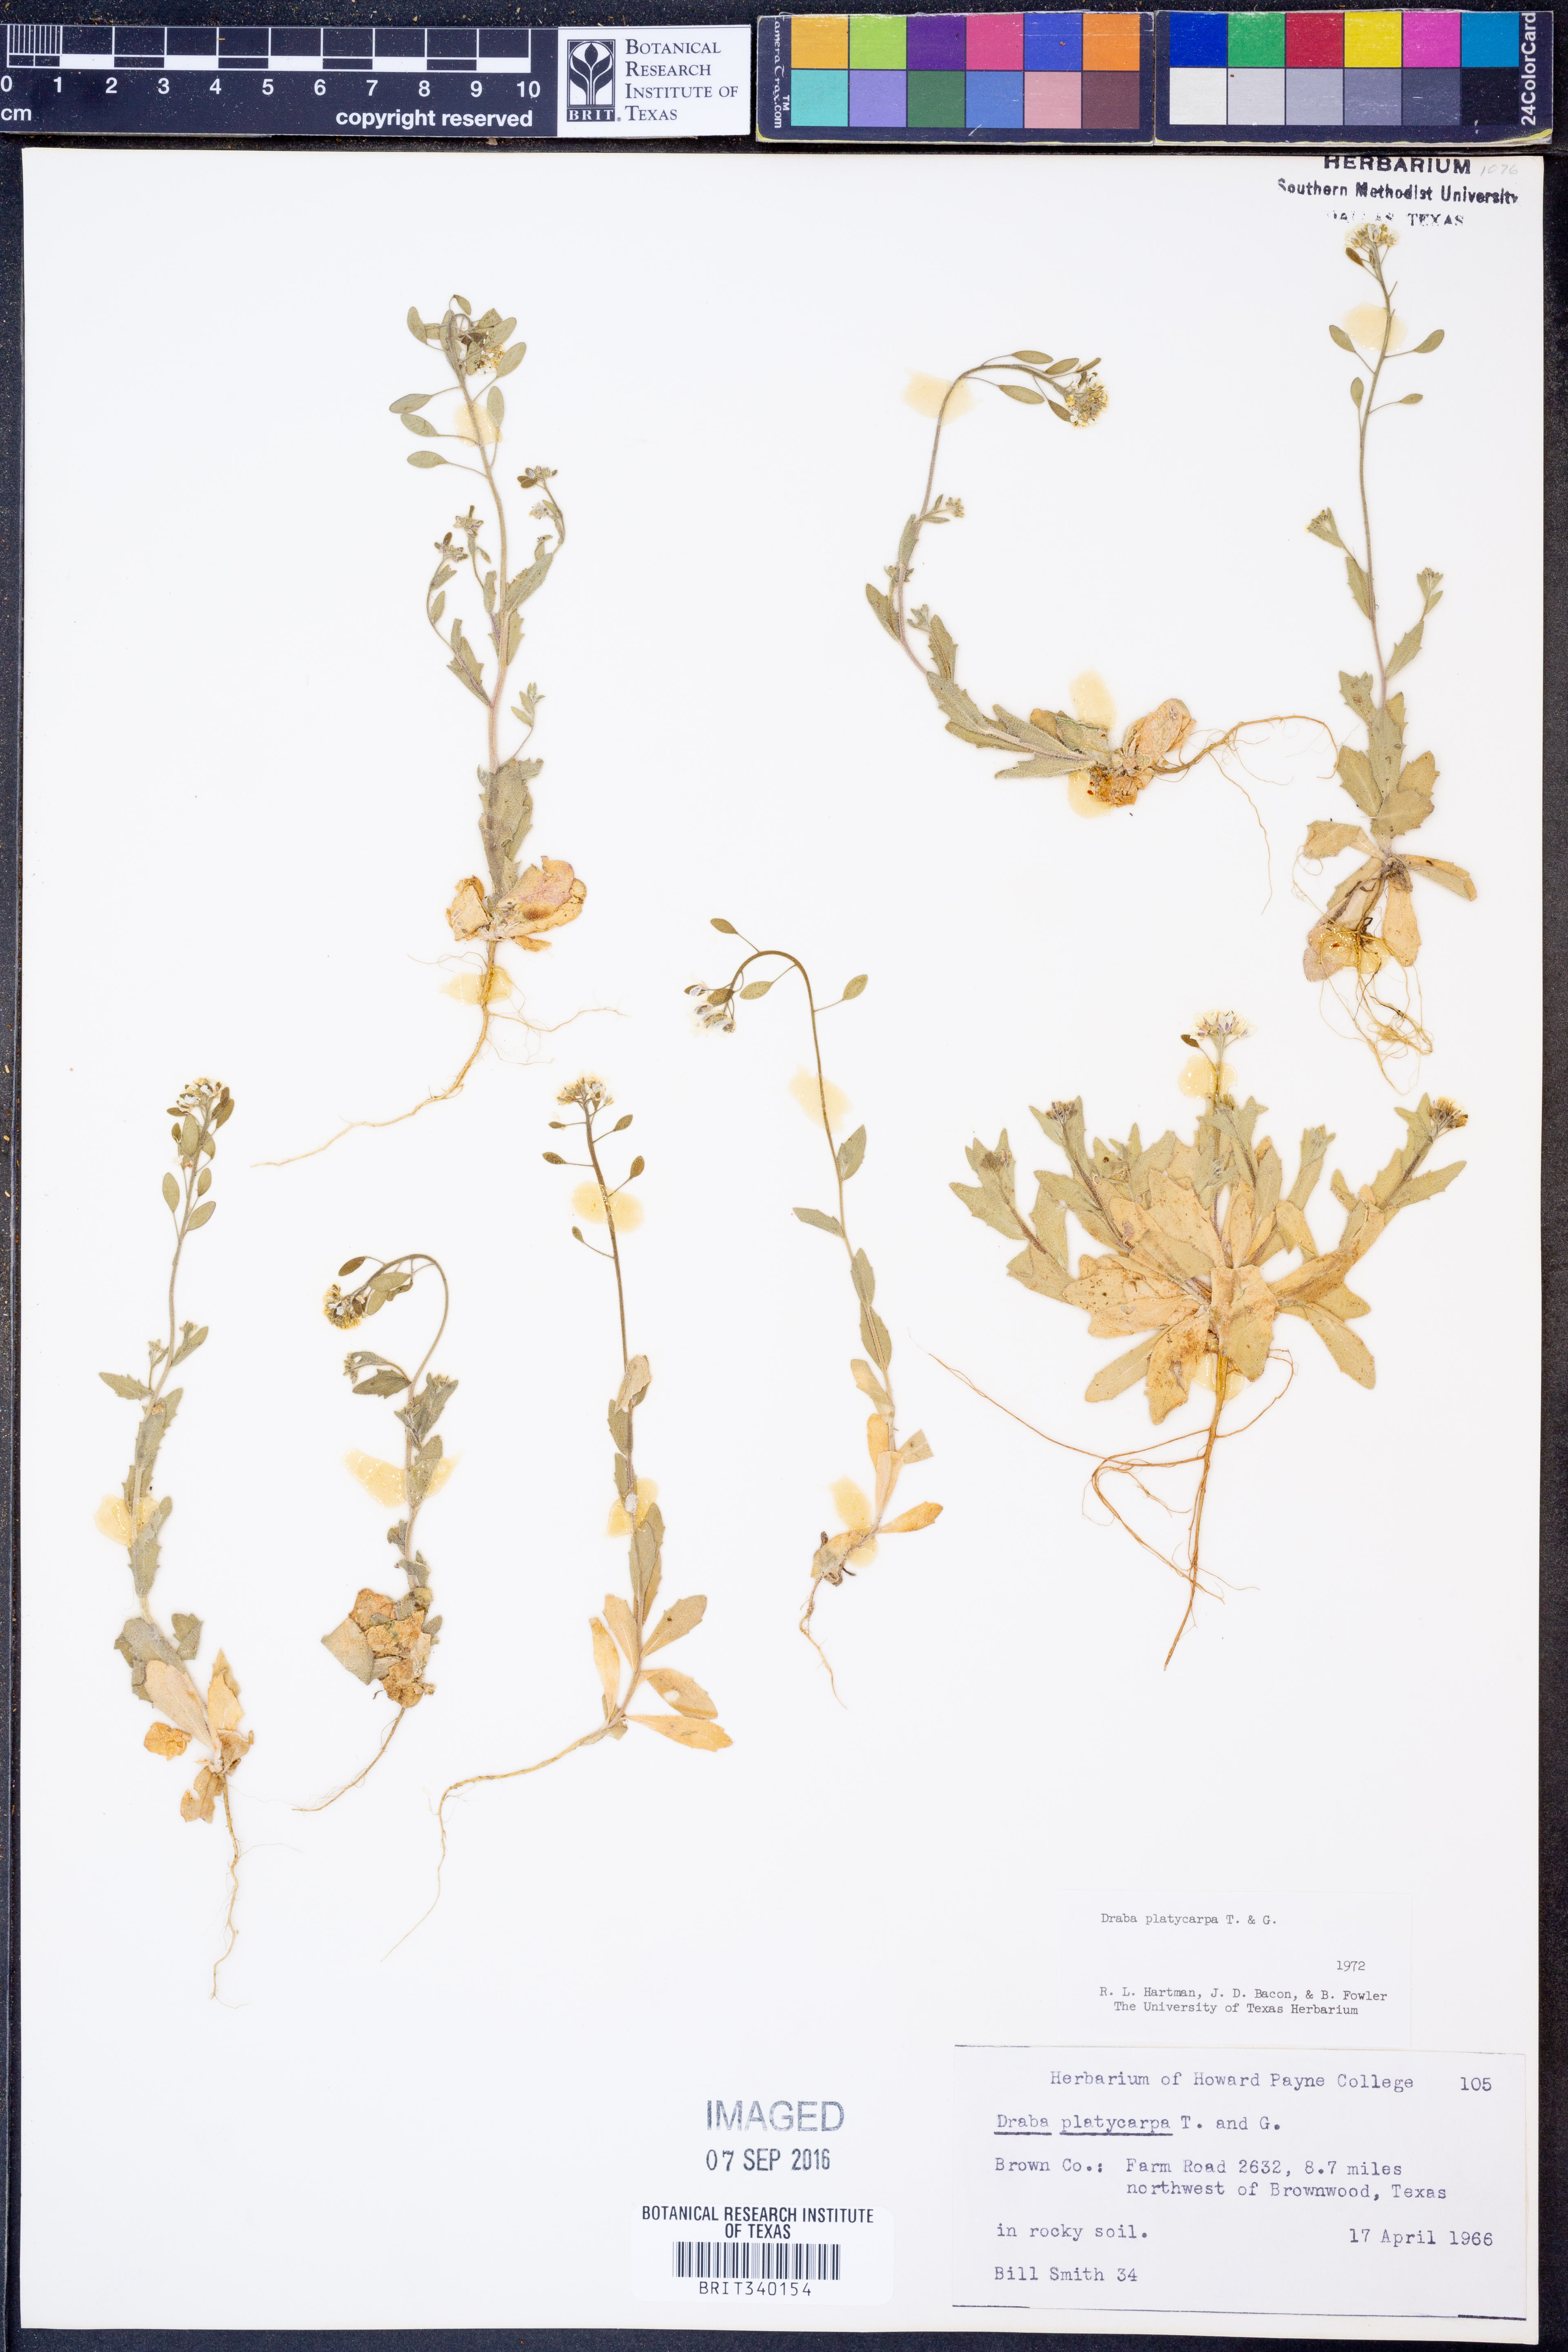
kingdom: Plantae
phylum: Tracheophyta
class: Magnoliopsida
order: Brassicales
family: Brassicaceae
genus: Tomostima
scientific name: Tomostima platycarpa
